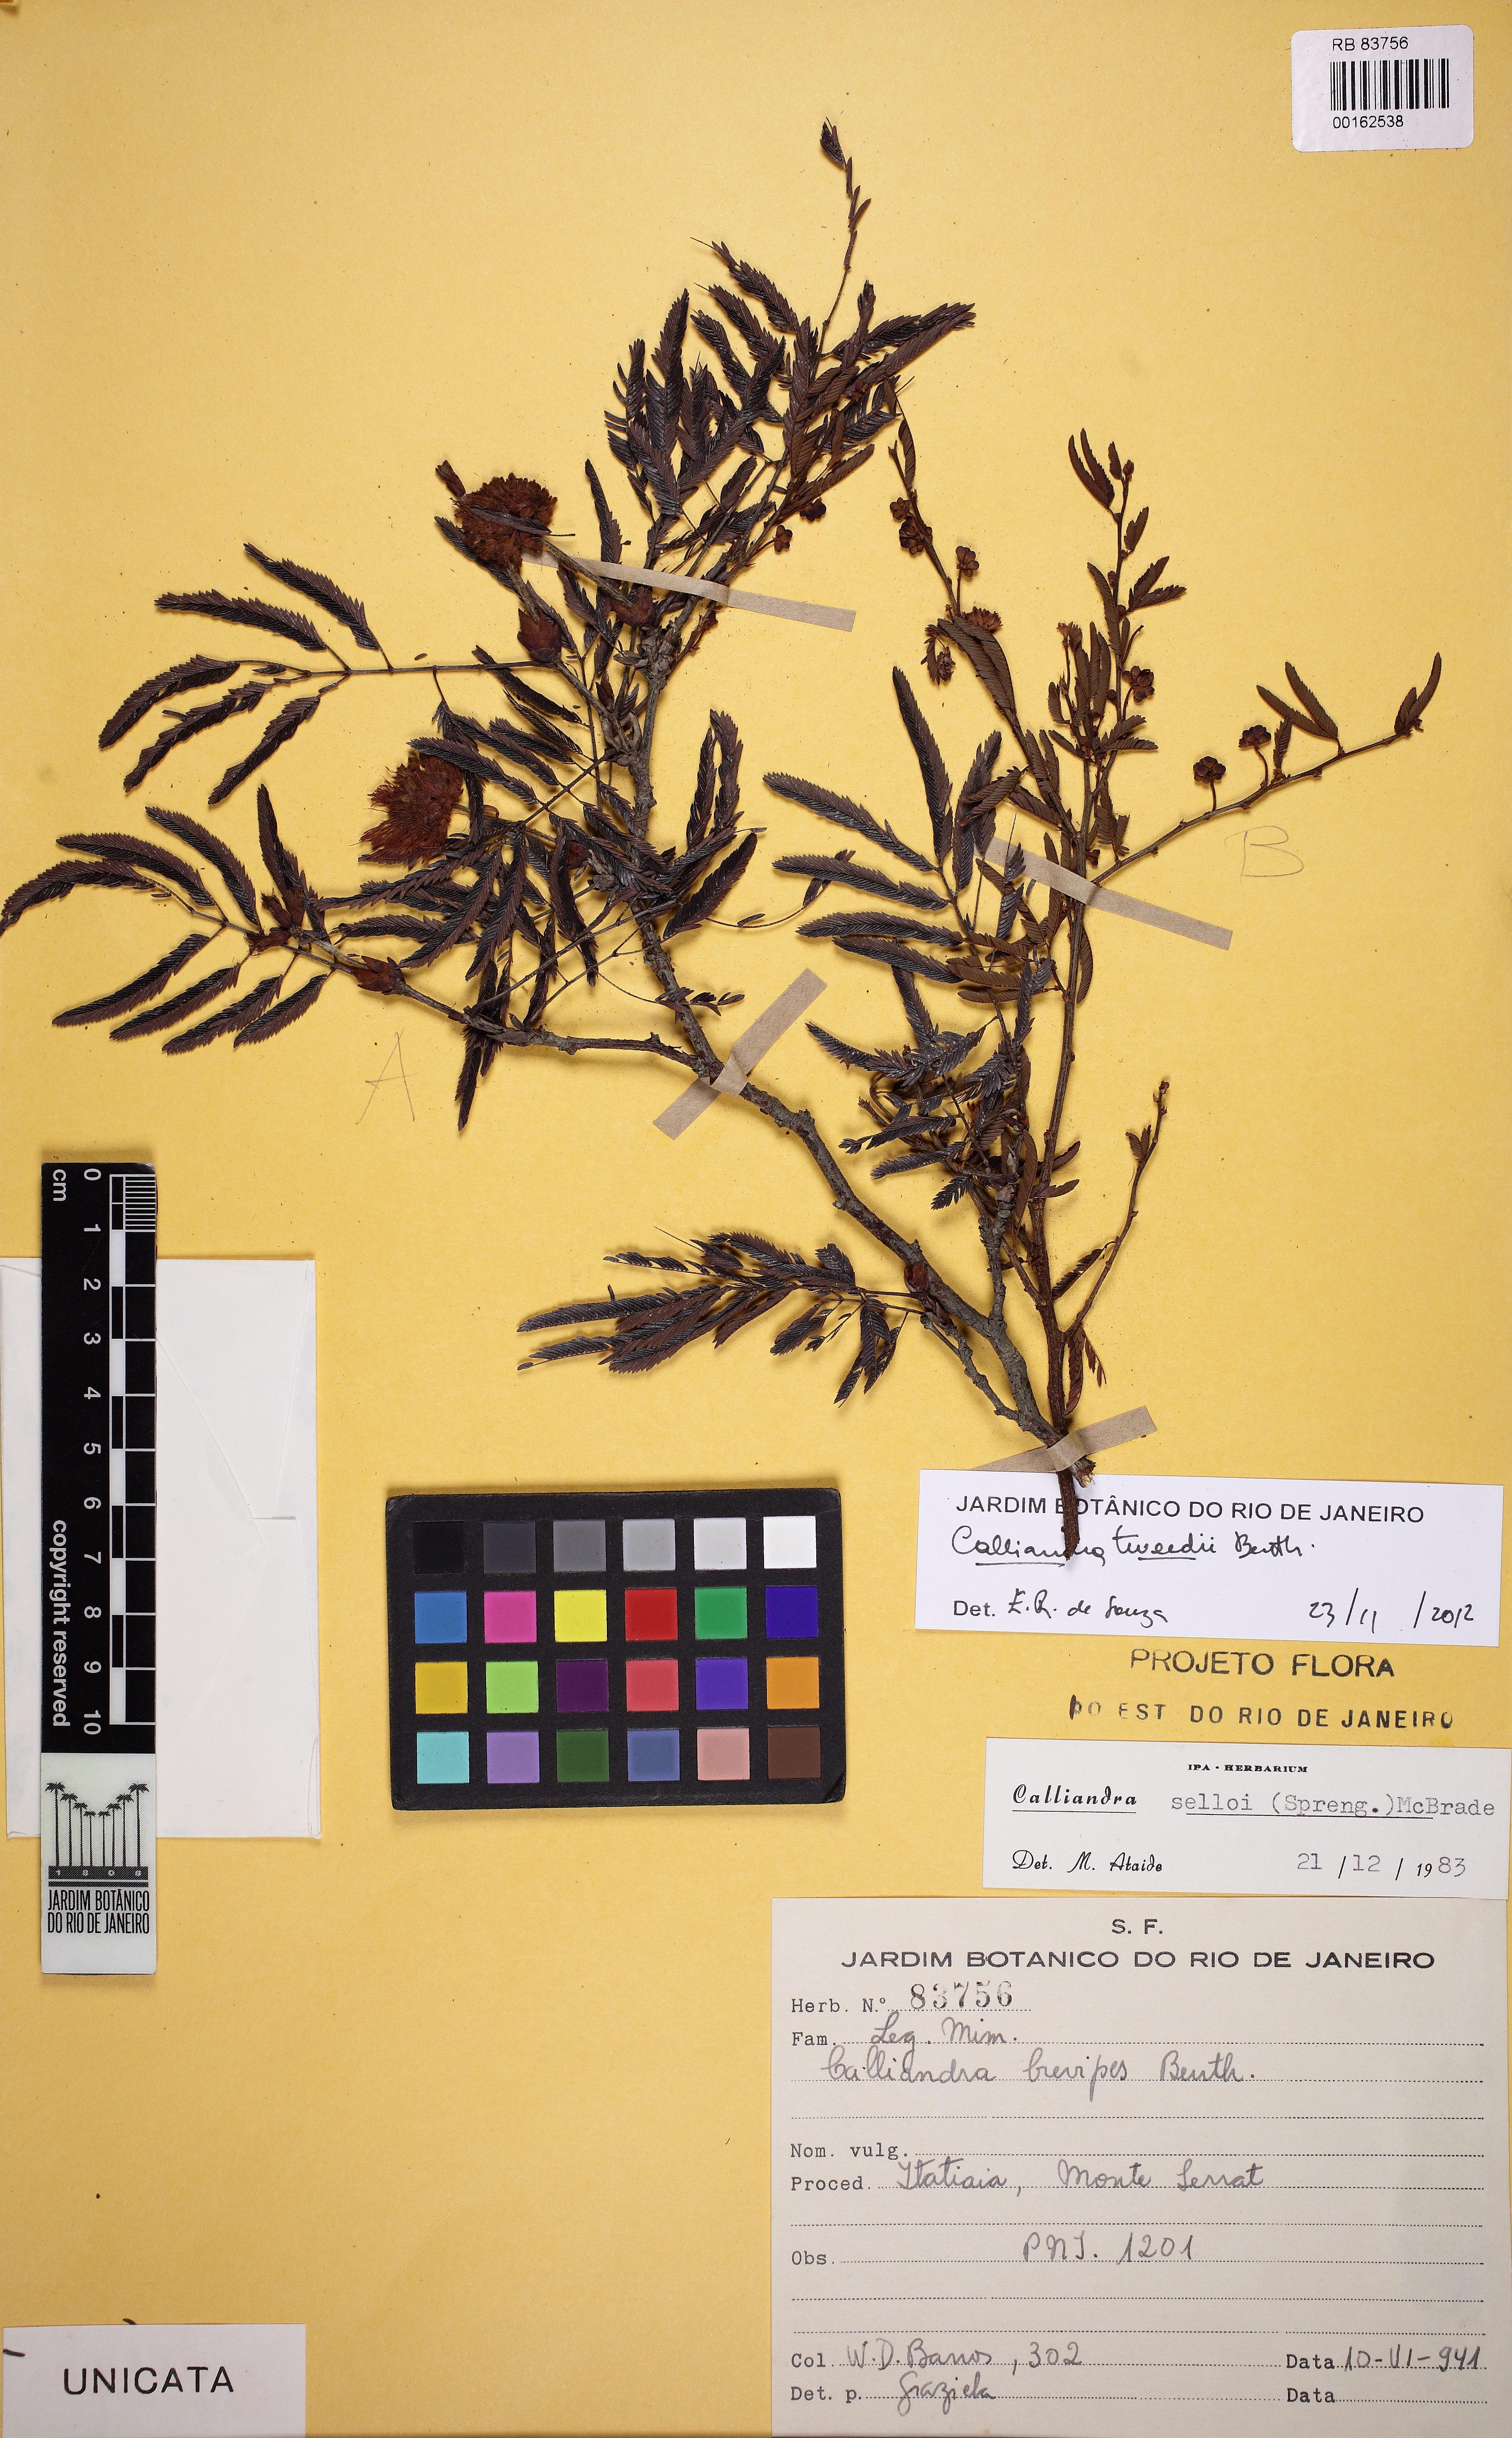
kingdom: Plantae
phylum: Tracheophyta
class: Magnoliopsida
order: Fabales
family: Fabaceae
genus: Calliandra
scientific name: Calliandra tweedii
